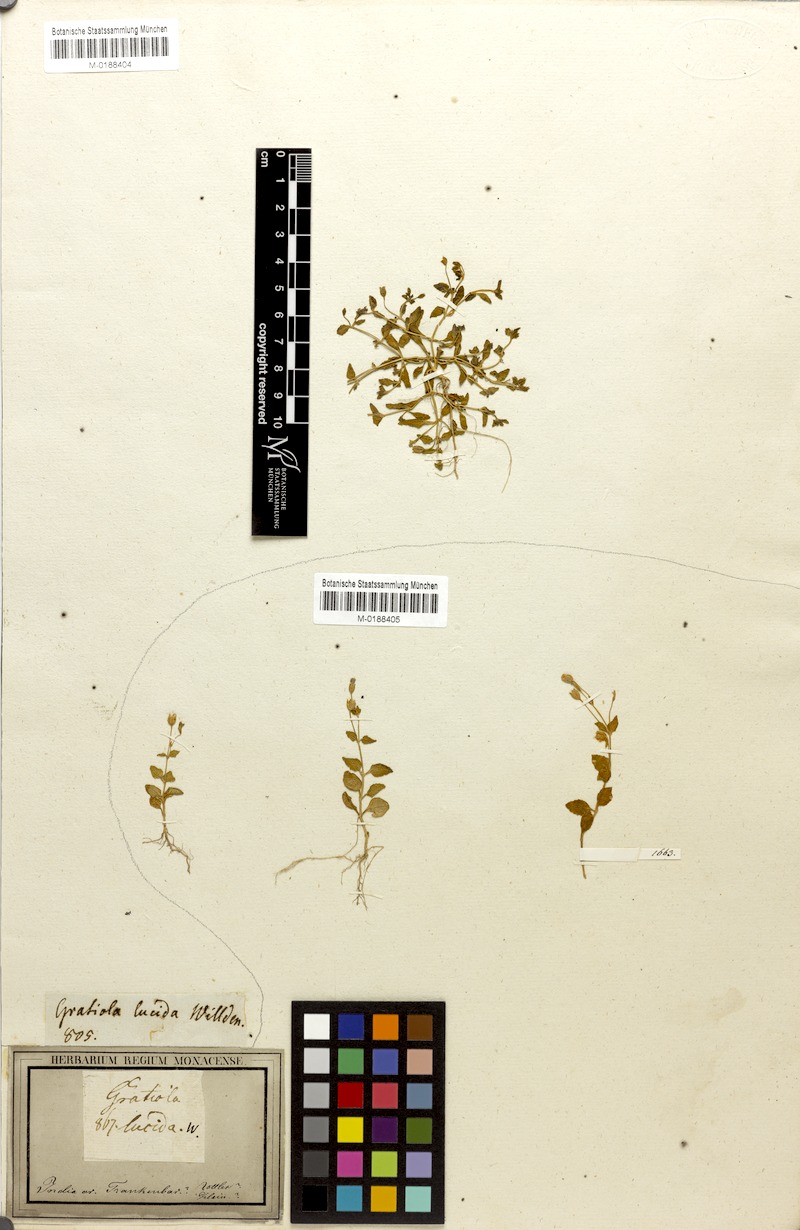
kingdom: Plantae
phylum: Tracheophyta
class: Magnoliopsida
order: Lamiales
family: Linderniaceae
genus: Torenia
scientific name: Torenia crustacea
